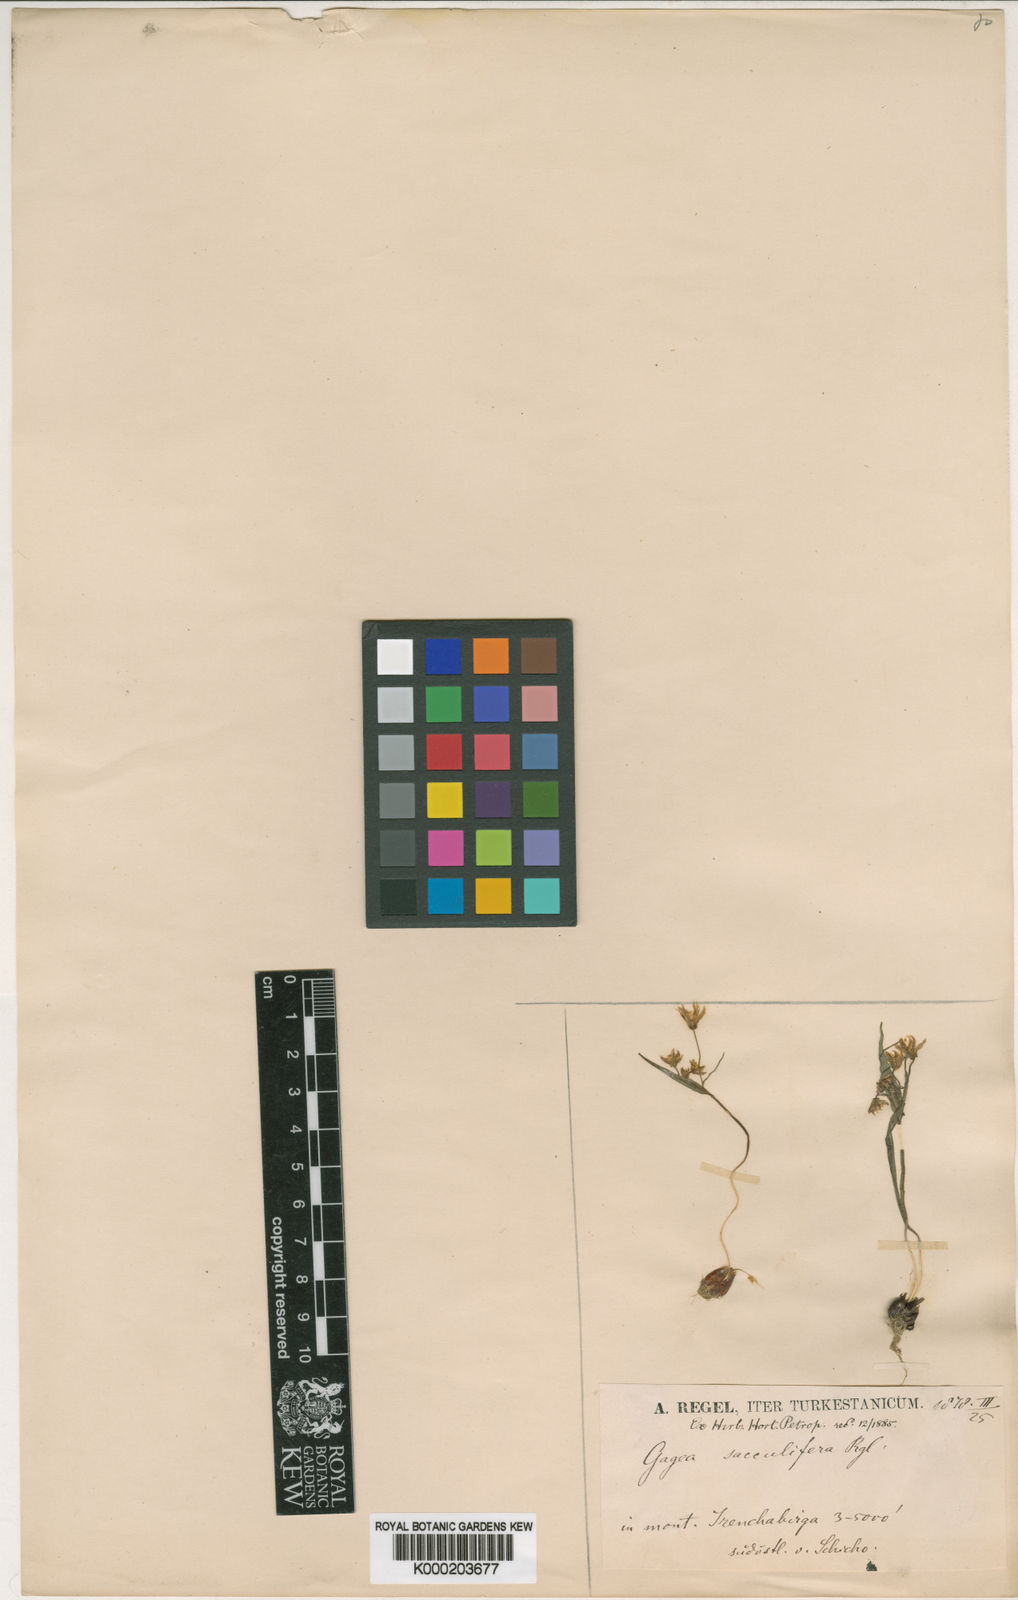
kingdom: Plantae
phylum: Tracheophyta
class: Liliopsida
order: Liliales
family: Liliaceae
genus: Gagea
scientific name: Gagea filiformis
